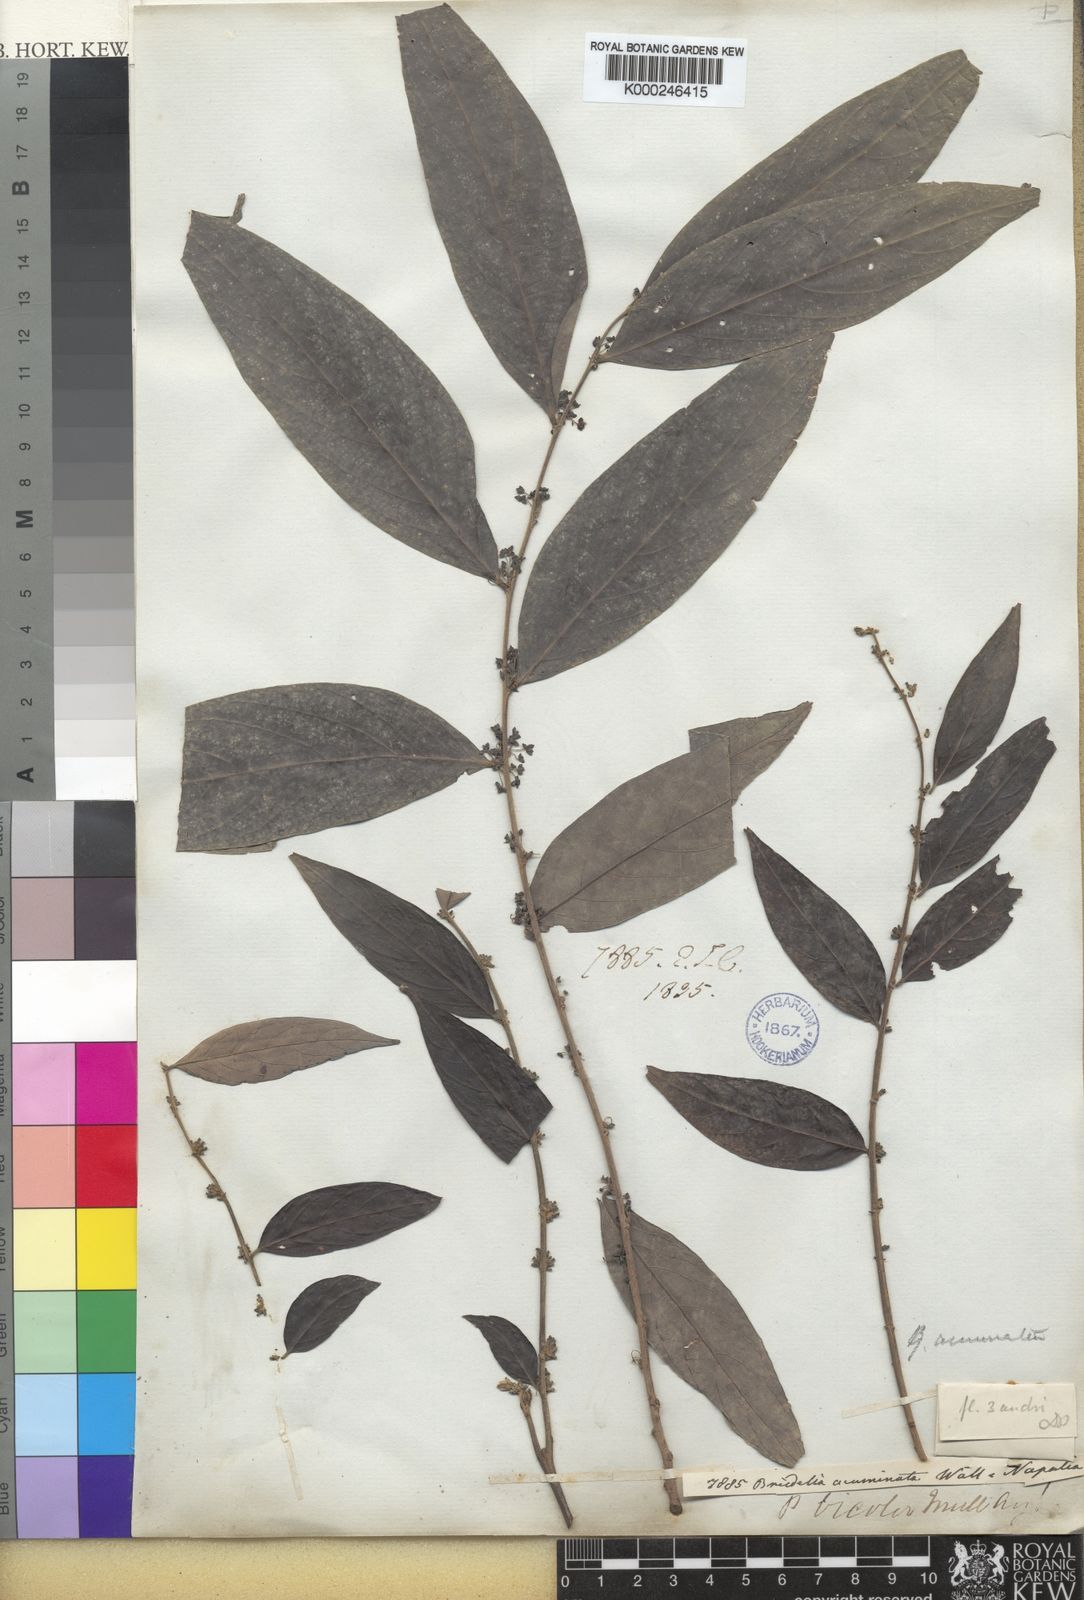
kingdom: Plantae
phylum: Tracheophyta
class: Magnoliopsida
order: Malpighiales
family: Phyllanthaceae
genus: Glochidion
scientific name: Glochidion
